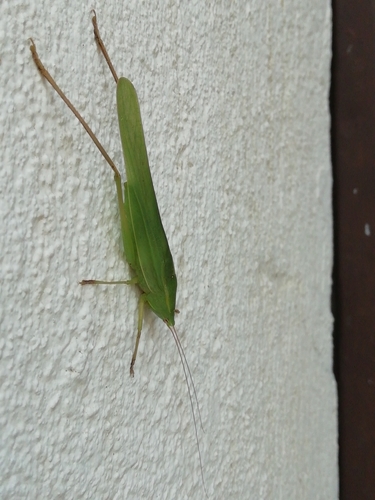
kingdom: Animalia
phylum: Arthropoda
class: Insecta
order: Orthoptera
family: Tettigoniidae
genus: Ruspolia
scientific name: Ruspolia nitidula
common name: Large conehead
